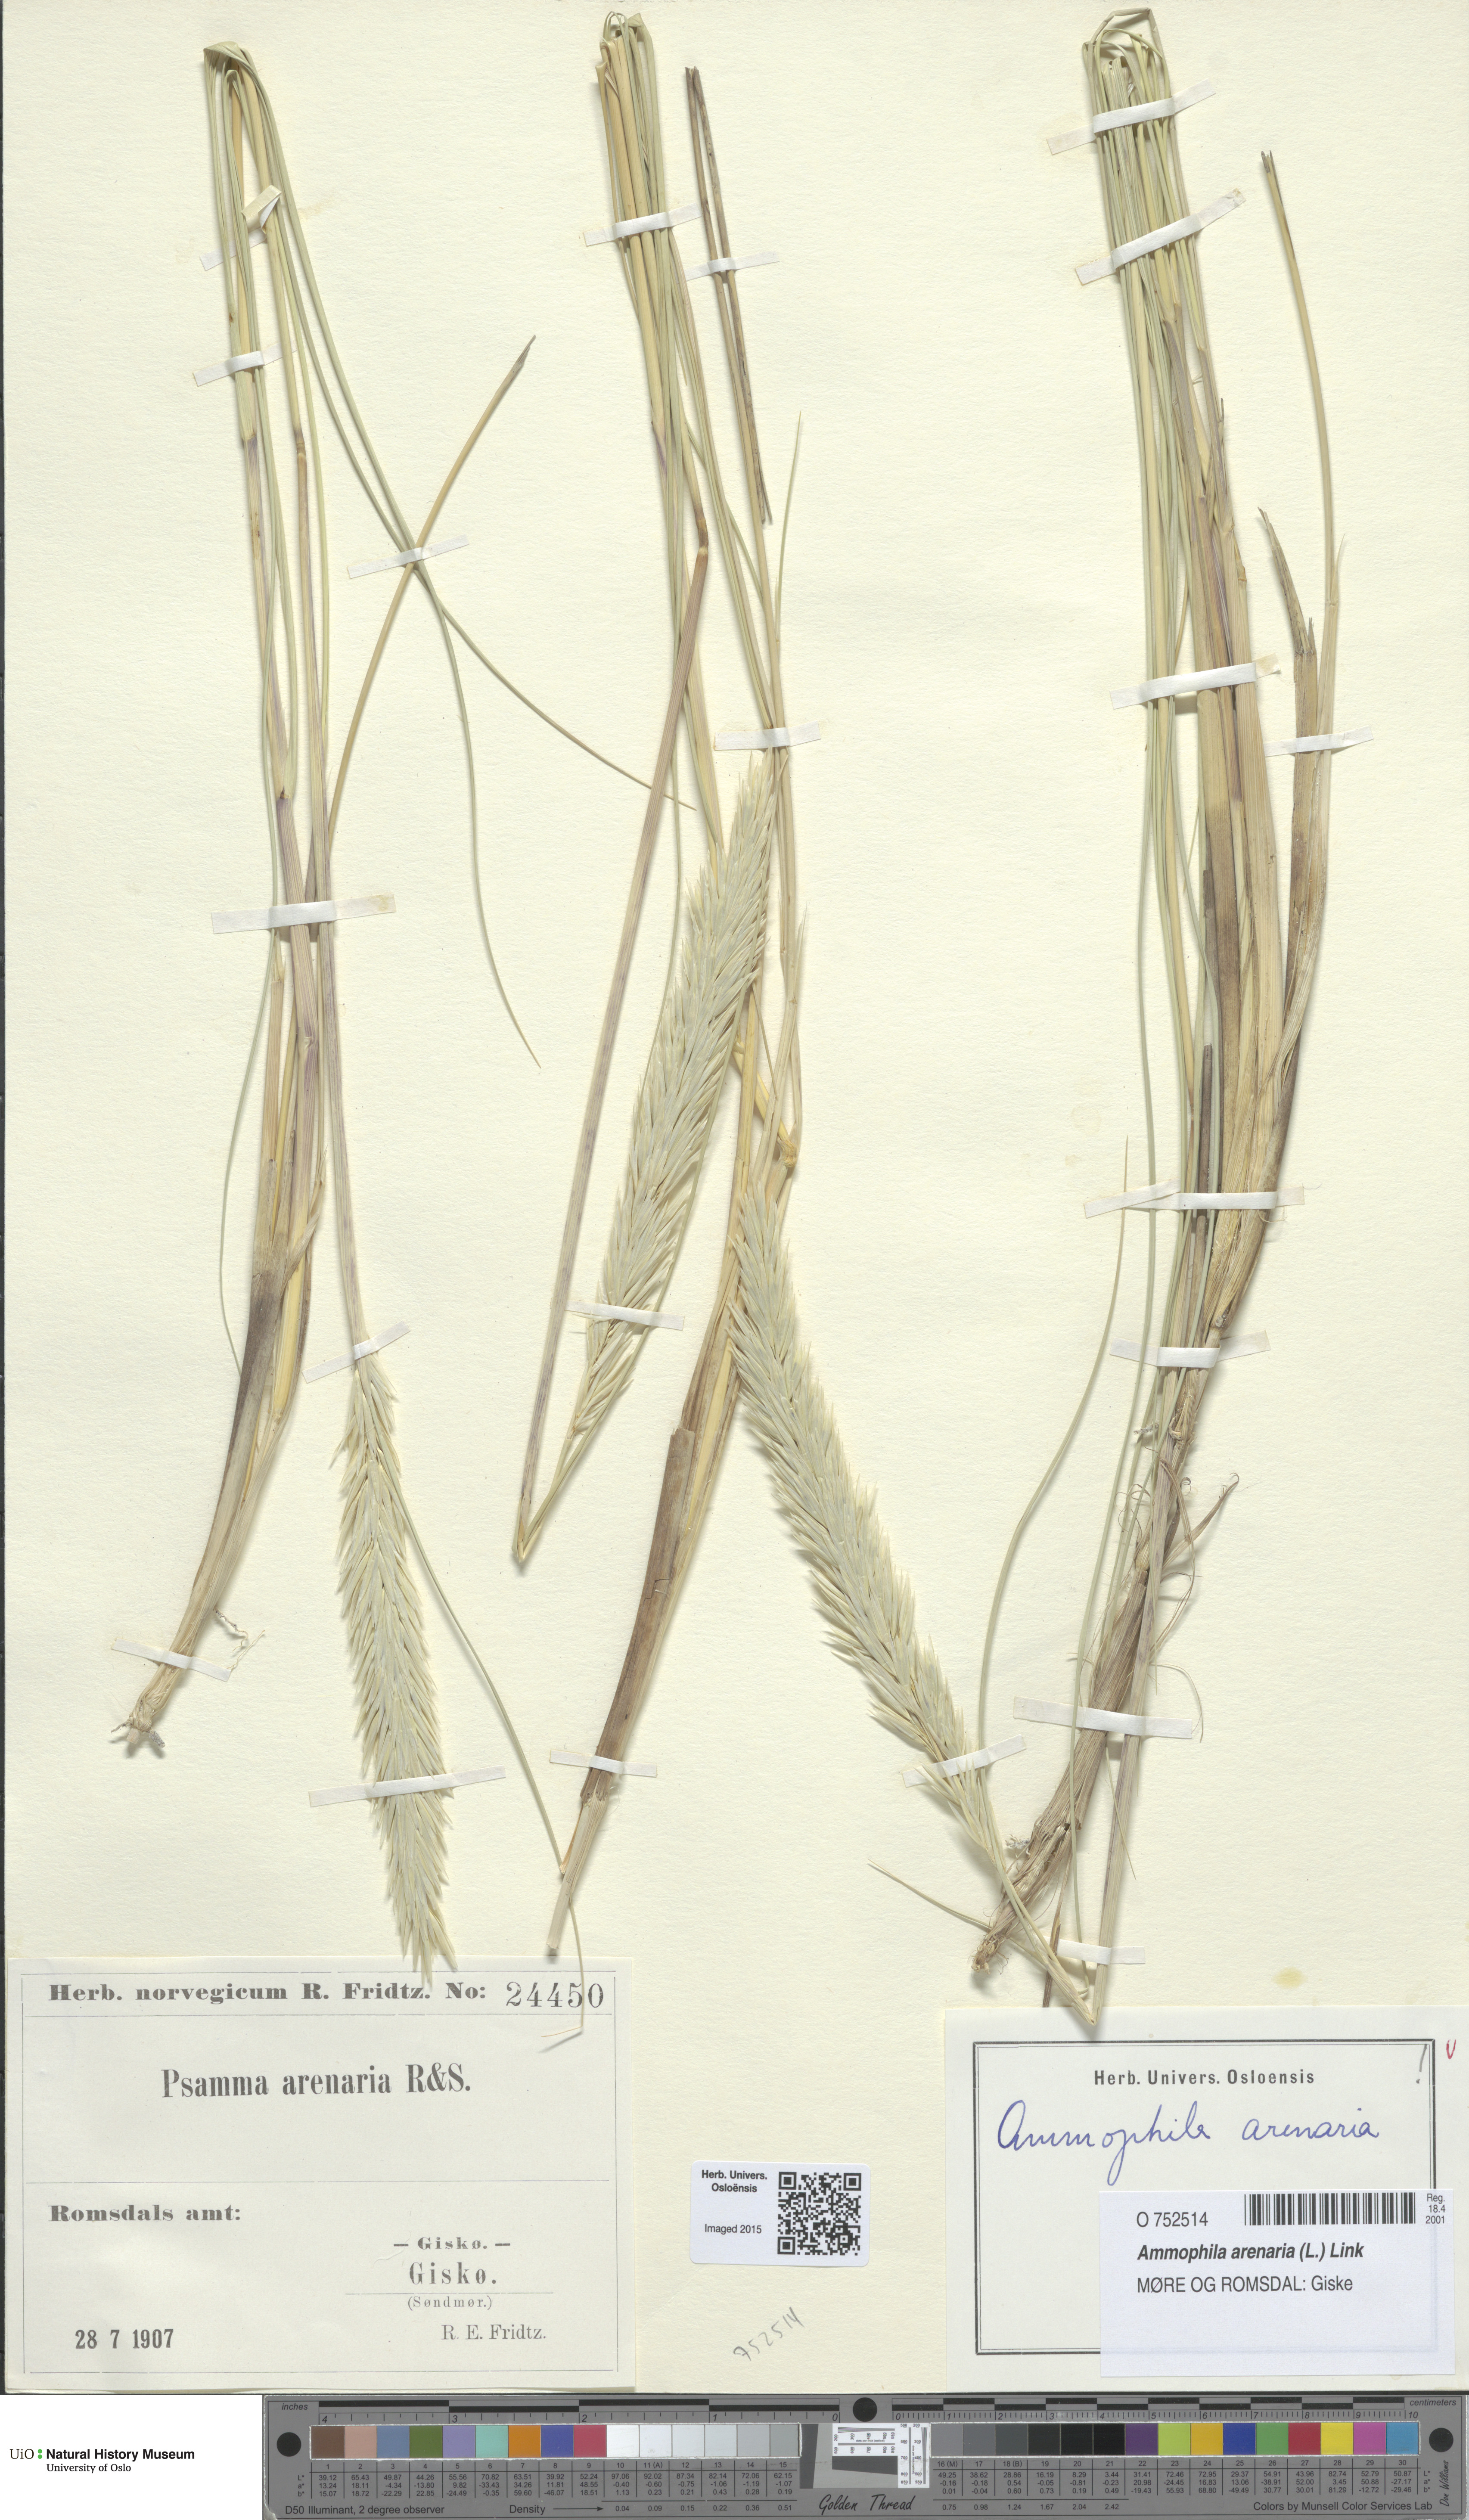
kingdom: Plantae
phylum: Tracheophyta
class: Liliopsida
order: Poales
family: Poaceae
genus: Calamagrostis
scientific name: Calamagrostis arenaria
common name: European beachgrass
